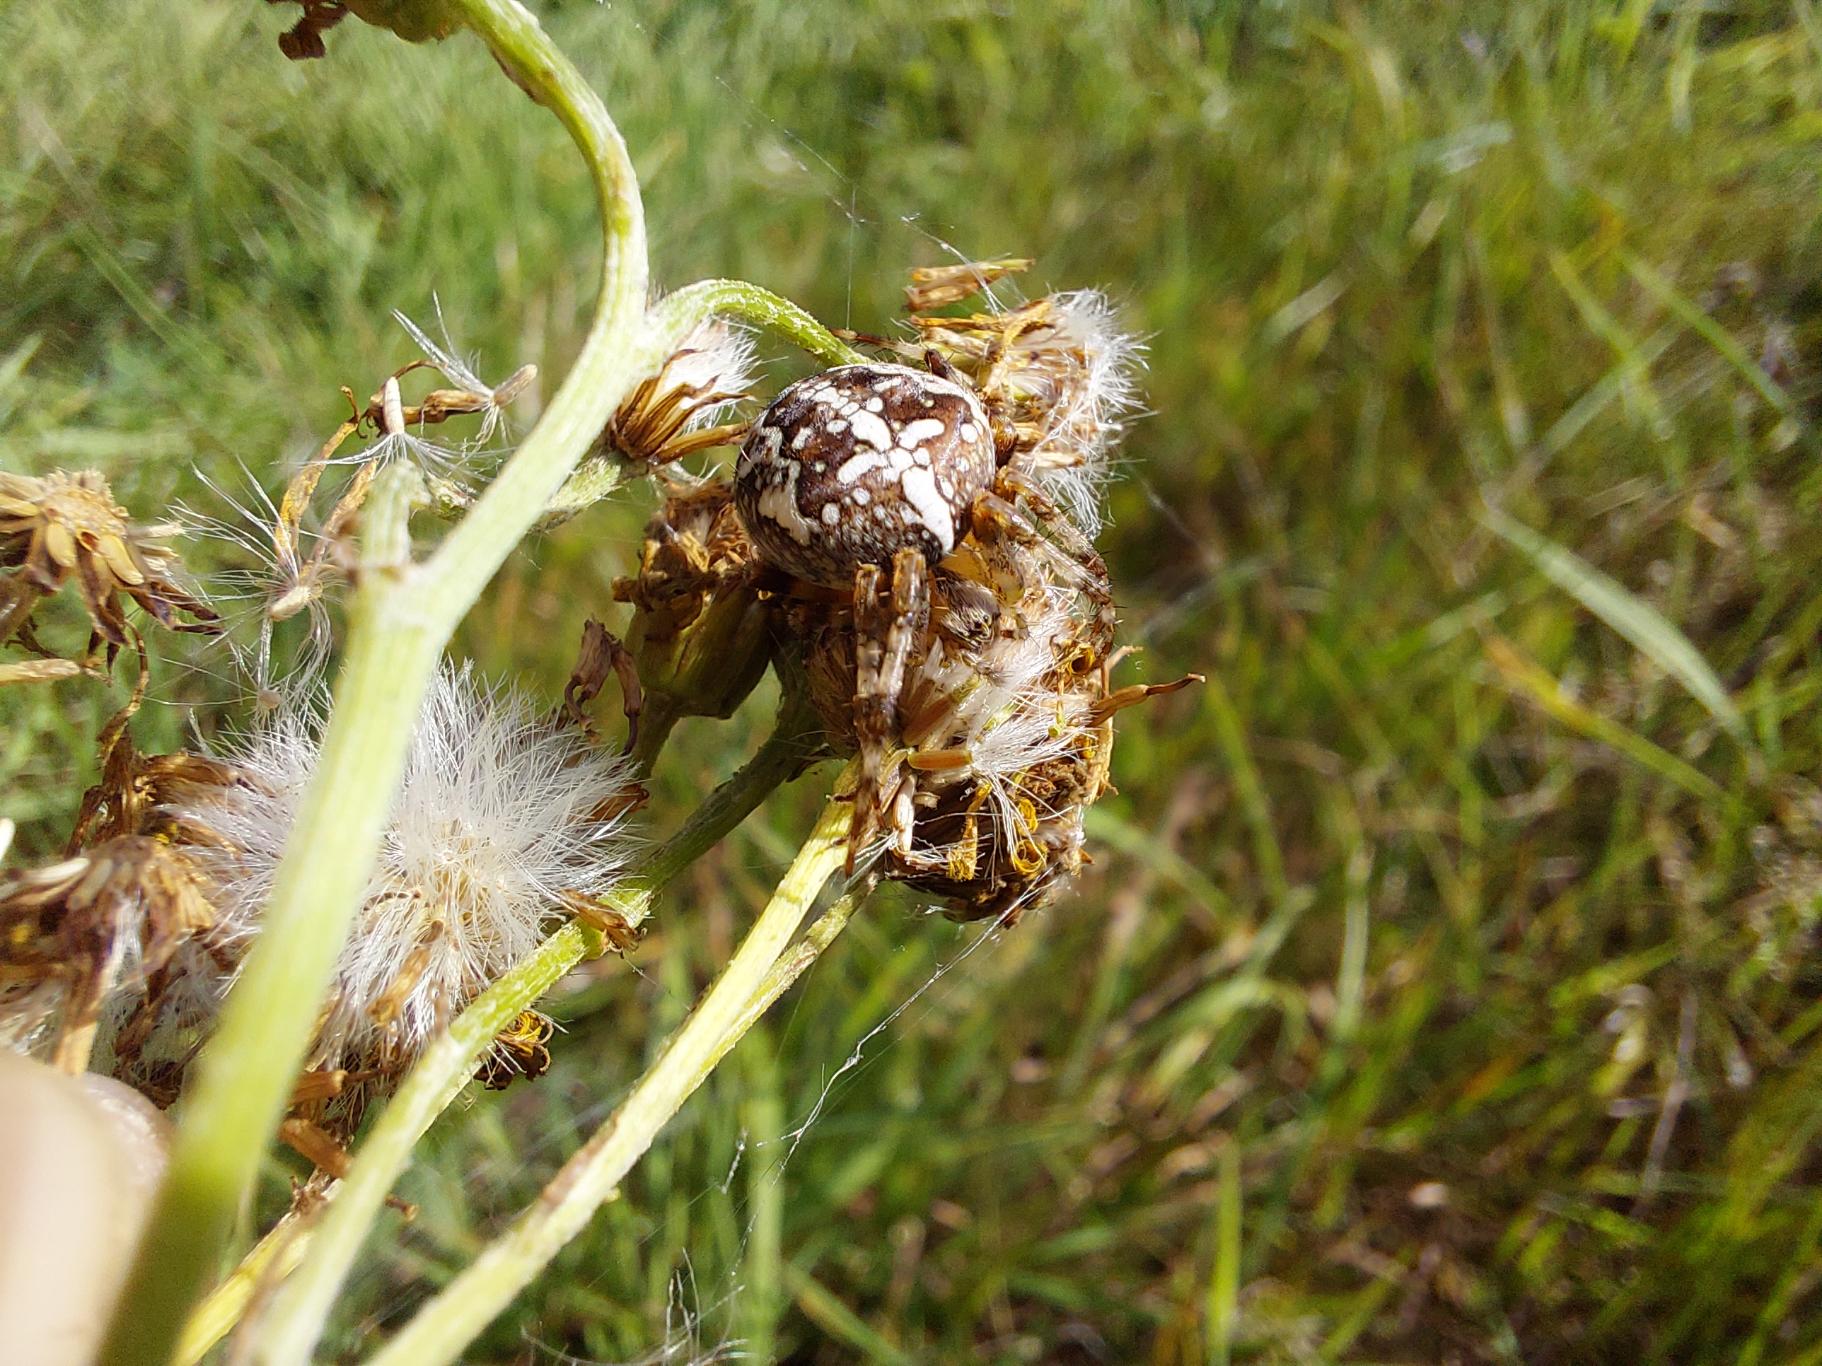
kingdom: Animalia
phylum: Arthropoda
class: Arachnida
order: Araneae
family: Araneidae
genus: Araneus
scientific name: Araneus marmoreus
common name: Marmoreret hjulspinder
